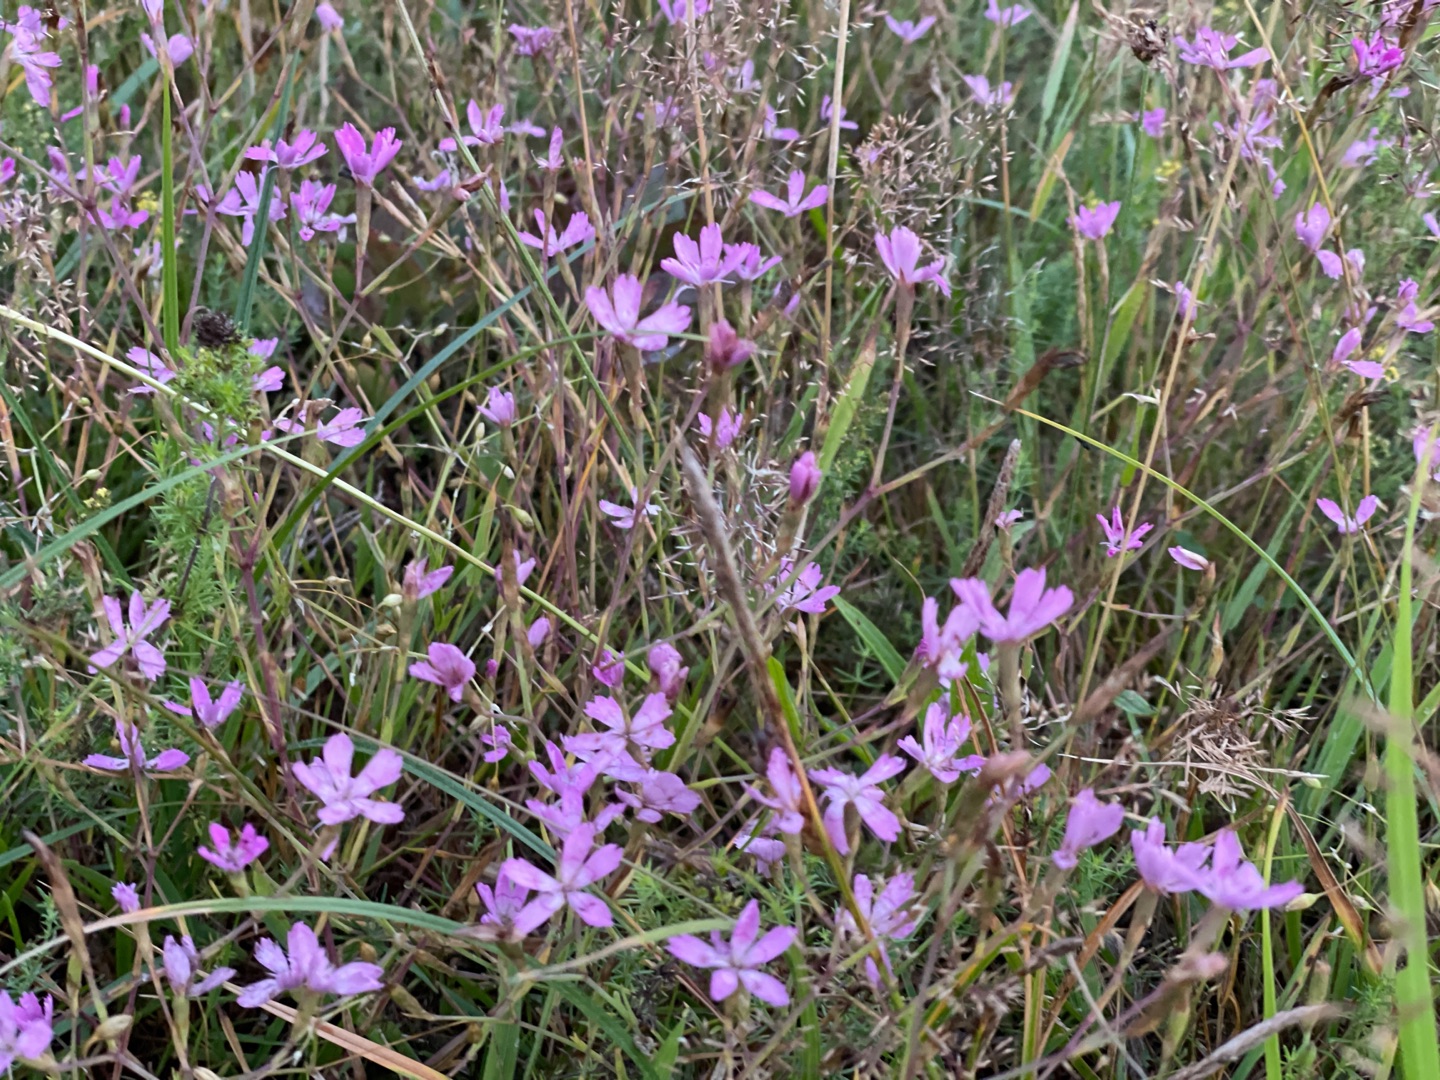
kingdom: Plantae
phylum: Tracheophyta
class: Magnoliopsida
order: Caryophyllales
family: Caryophyllaceae
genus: Dianthus
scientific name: Dianthus deltoides
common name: Bakke-nellike
